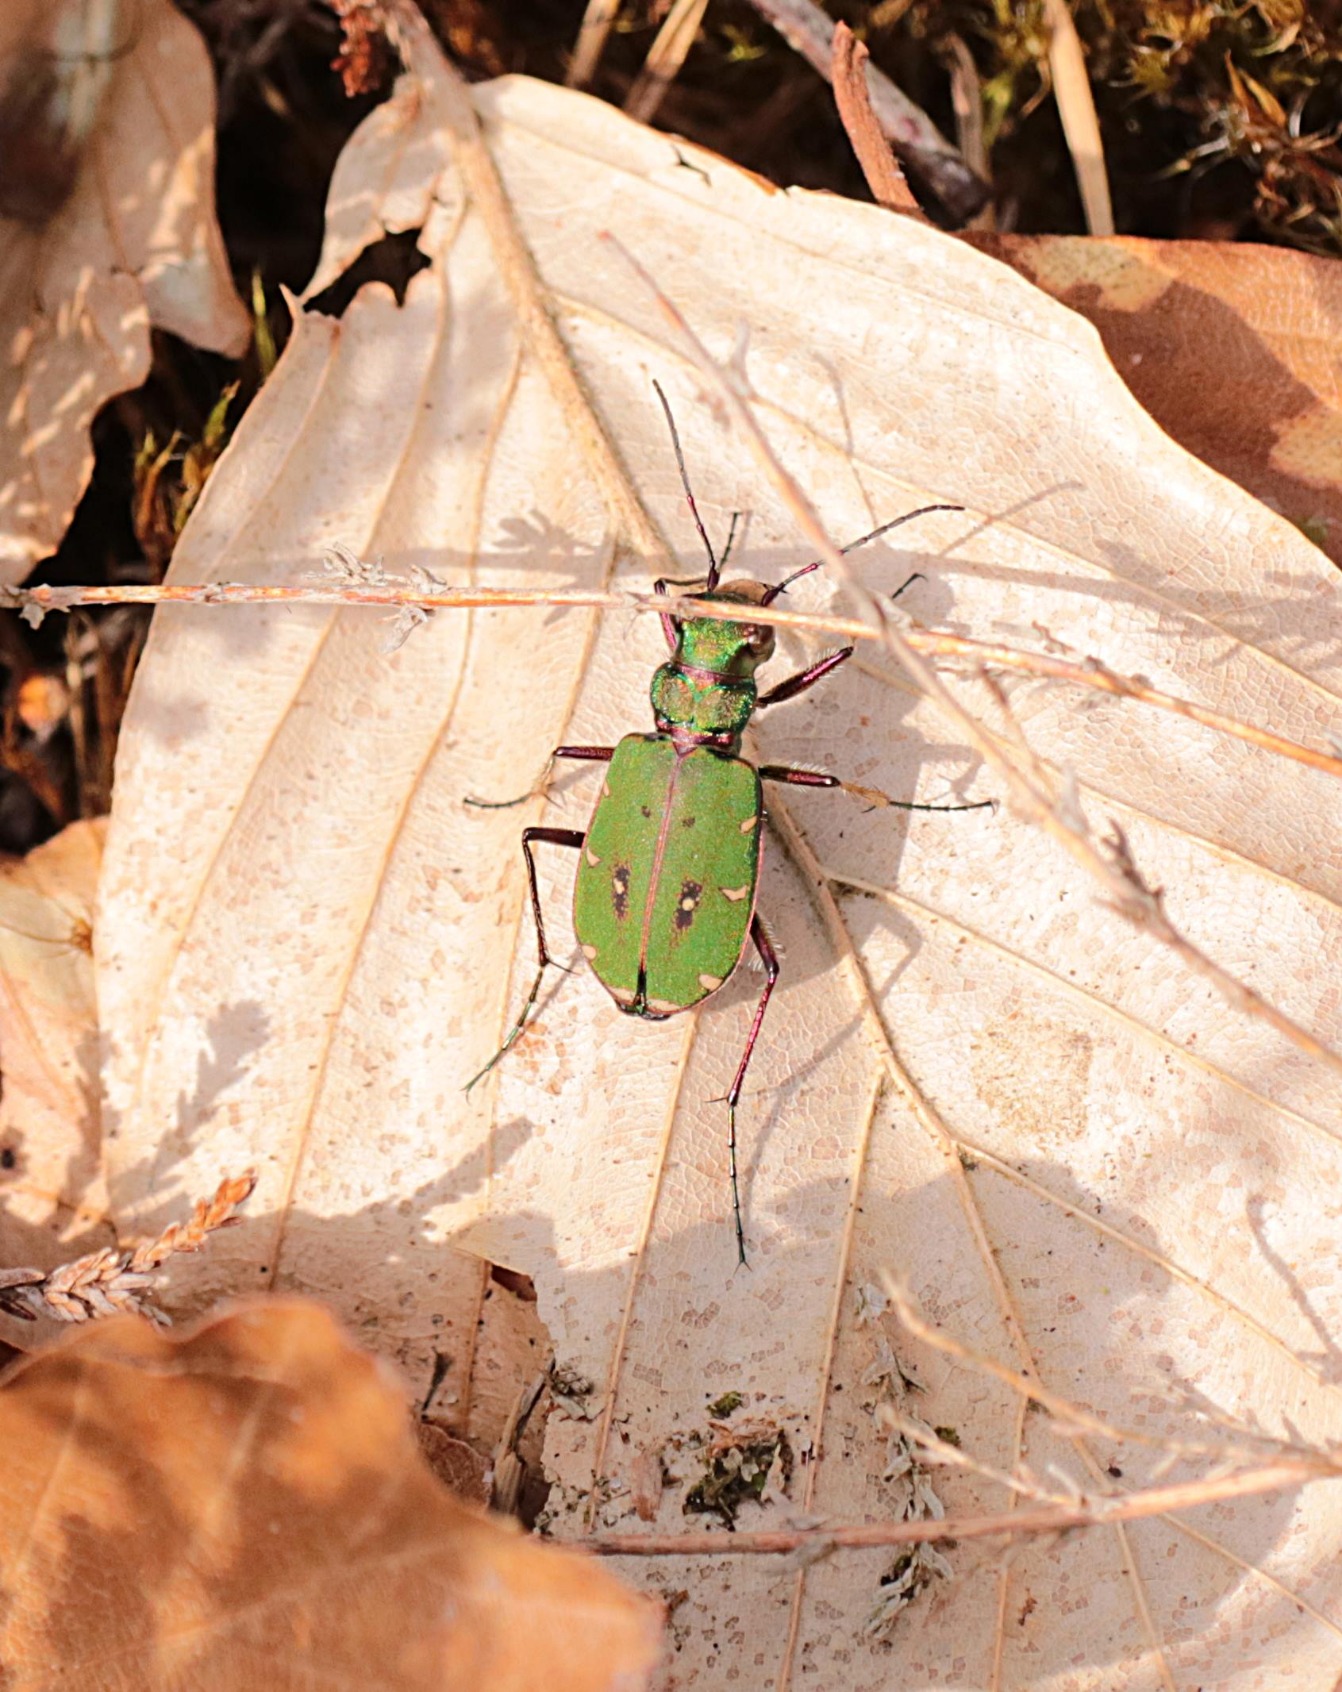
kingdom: Animalia
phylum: Arthropoda
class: Insecta
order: Coleoptera
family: Carabidae
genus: Cicindela
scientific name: Cicindela campestris
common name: Grøn sandspringer
